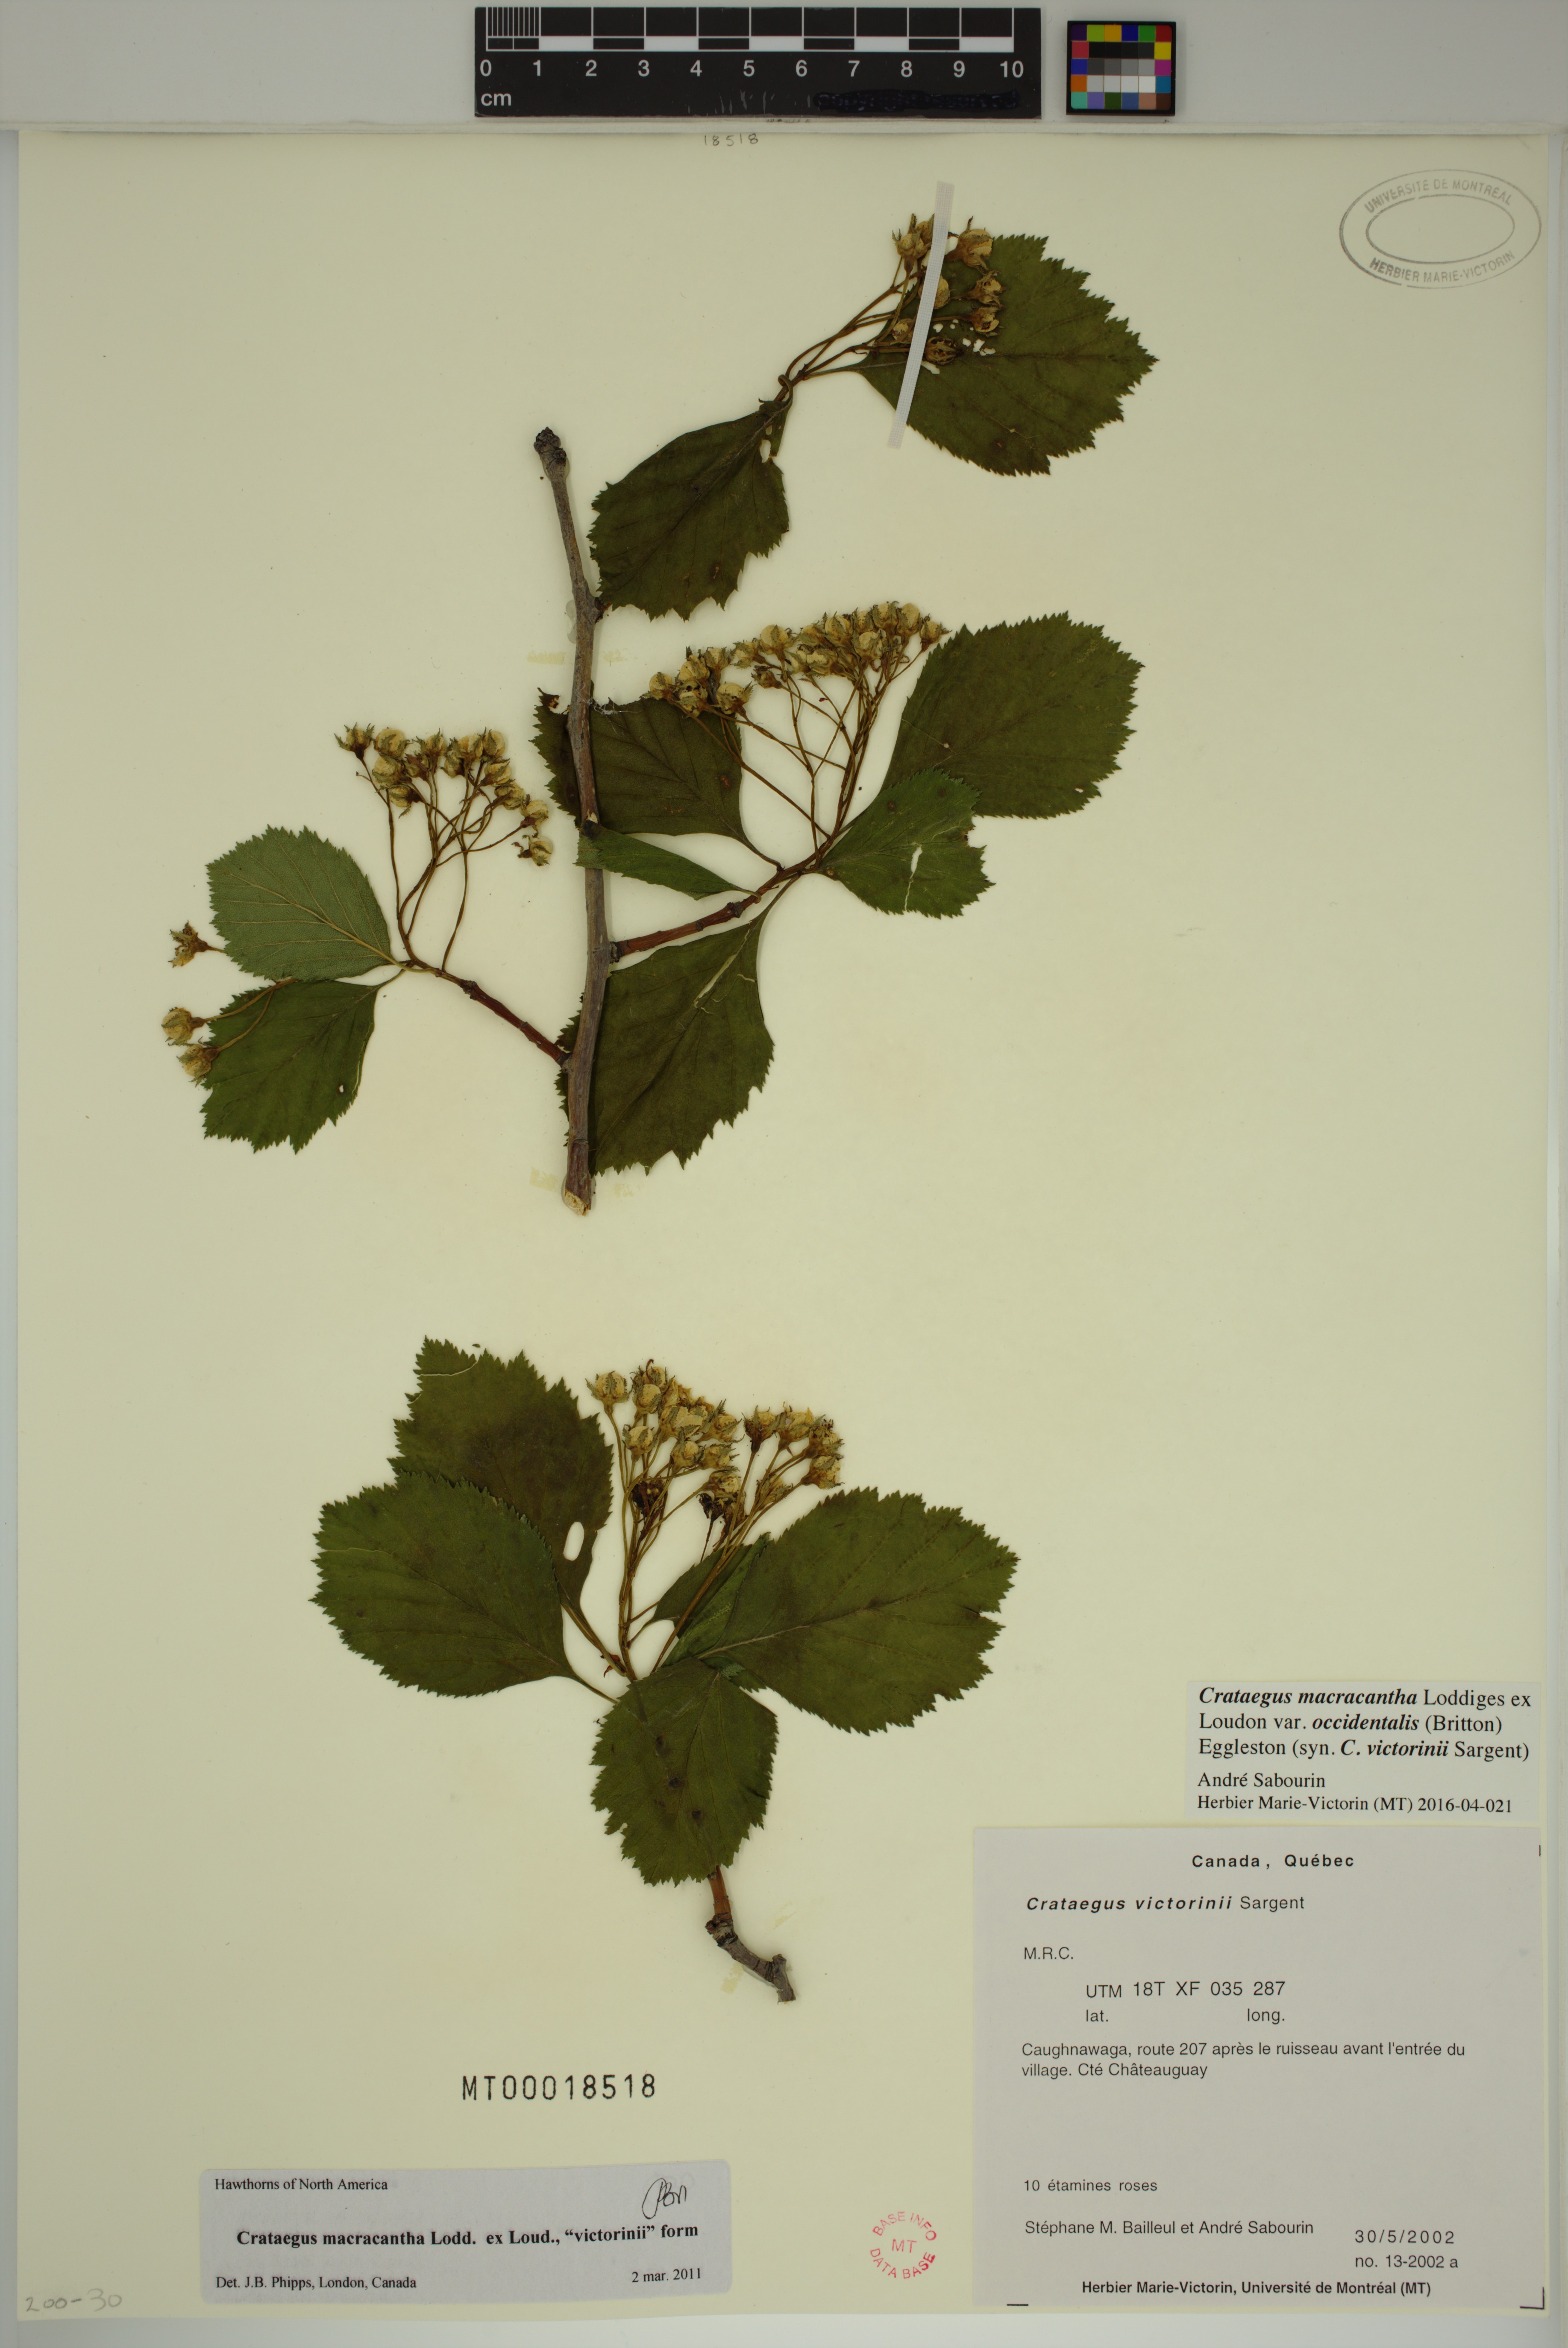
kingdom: Plantae
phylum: Tracheophyta
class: Magnoliopsida
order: Rosales
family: Rosaceae
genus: Crataegus
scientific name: Crataegus macracantha
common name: Large-thorn hawthorn
